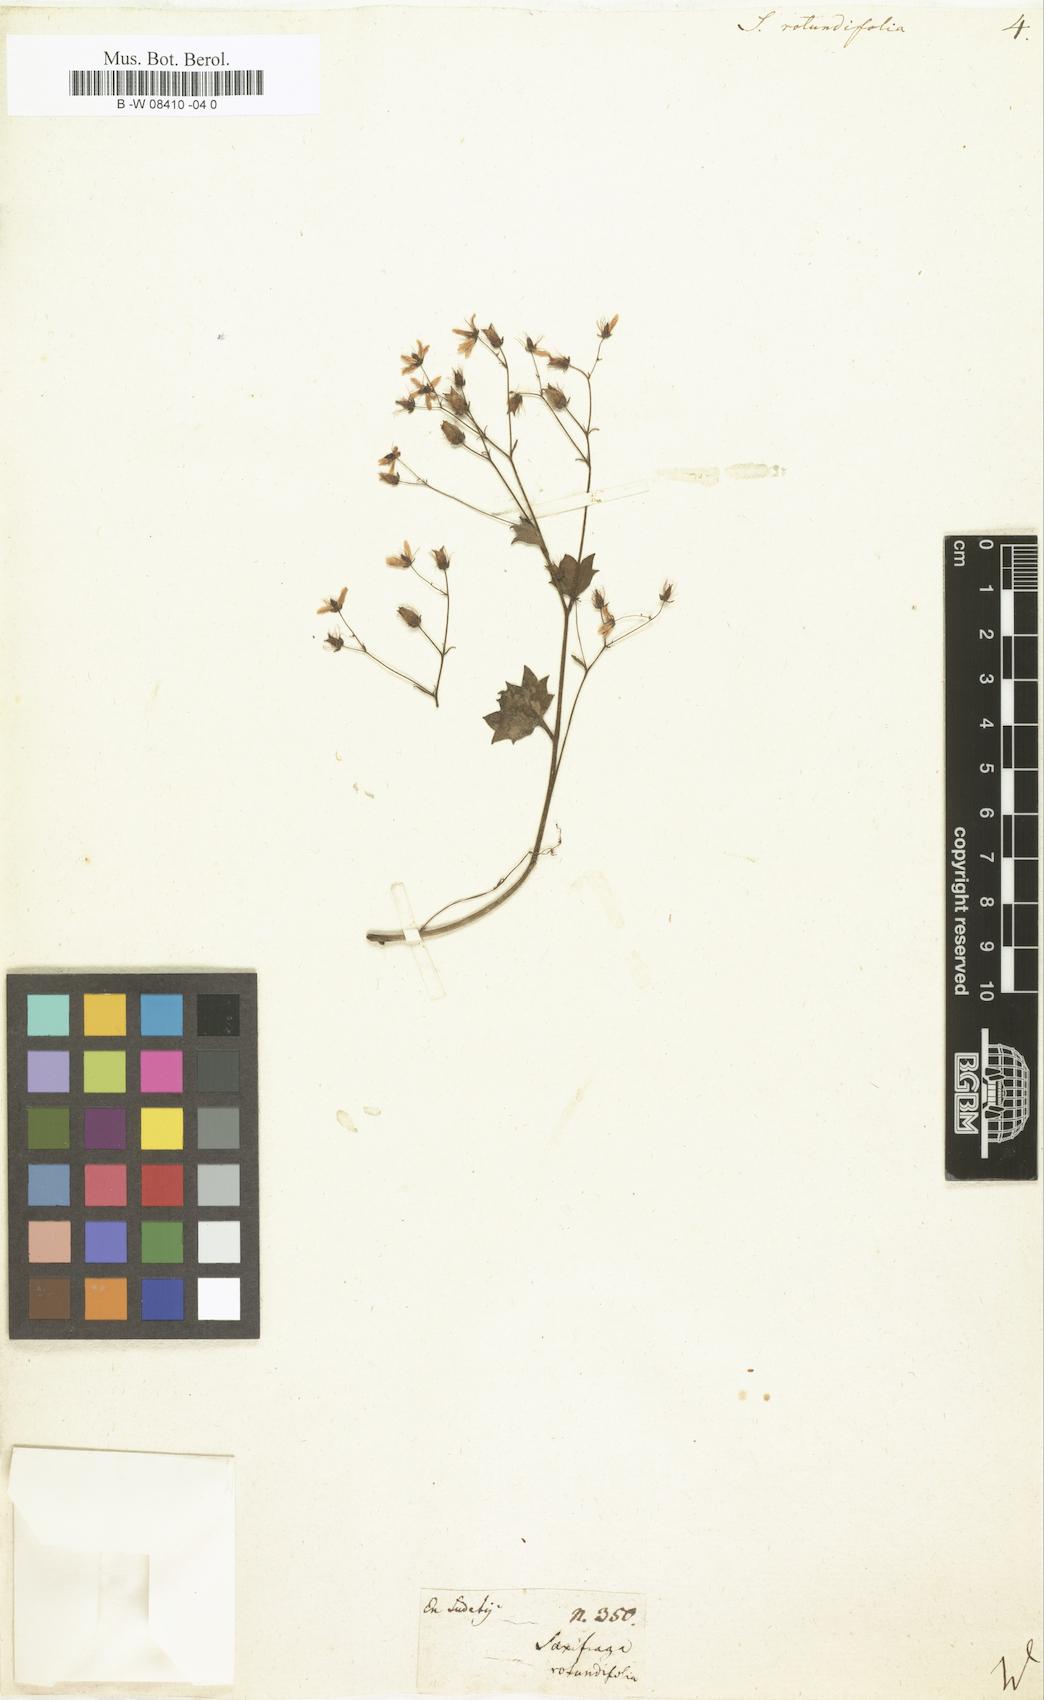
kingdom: Plantae
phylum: Tracheophyta
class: Magnoliopsida
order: Saxifragales
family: Saxifragaceae
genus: Saxifraga
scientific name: Saxifraga rotundifolia
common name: Round-leaved saxifrage
